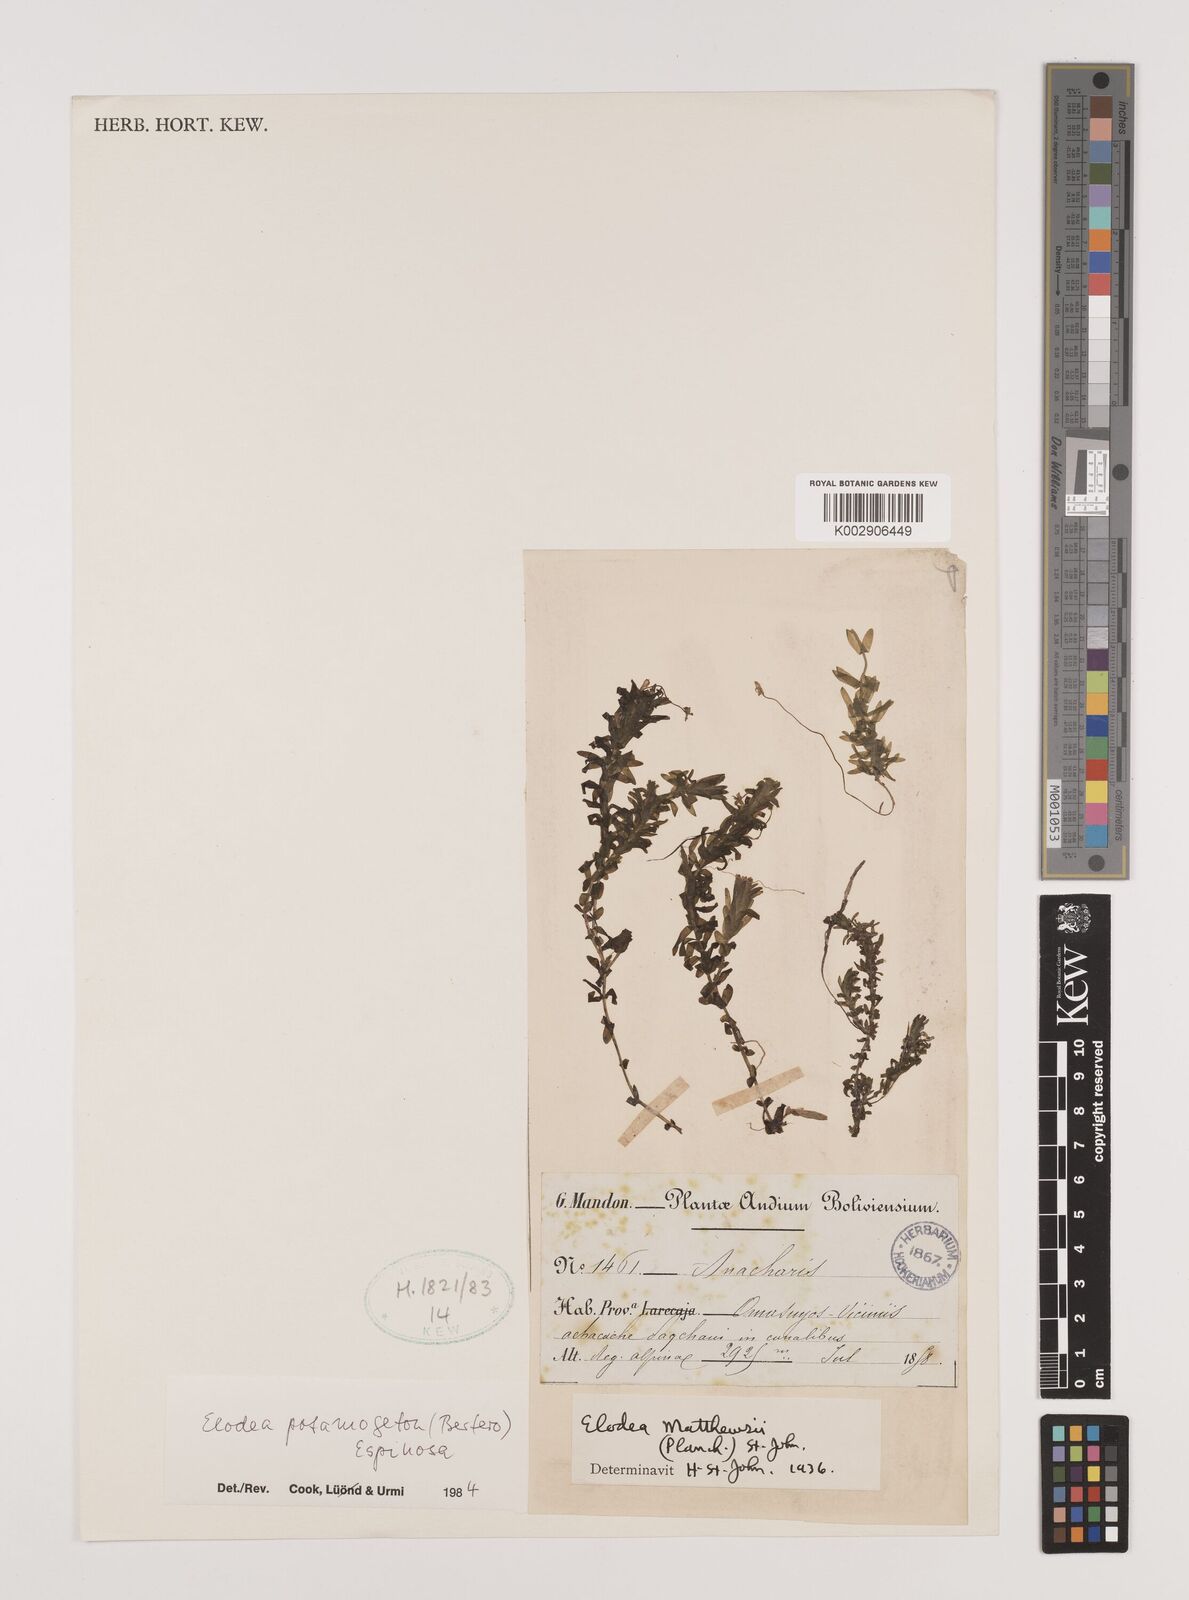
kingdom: Plantae
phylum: Tracheophyta
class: Liliopsida
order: Alismatales
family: Hydrocharitaceae
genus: Elodea
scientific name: Elodea potamogeton
